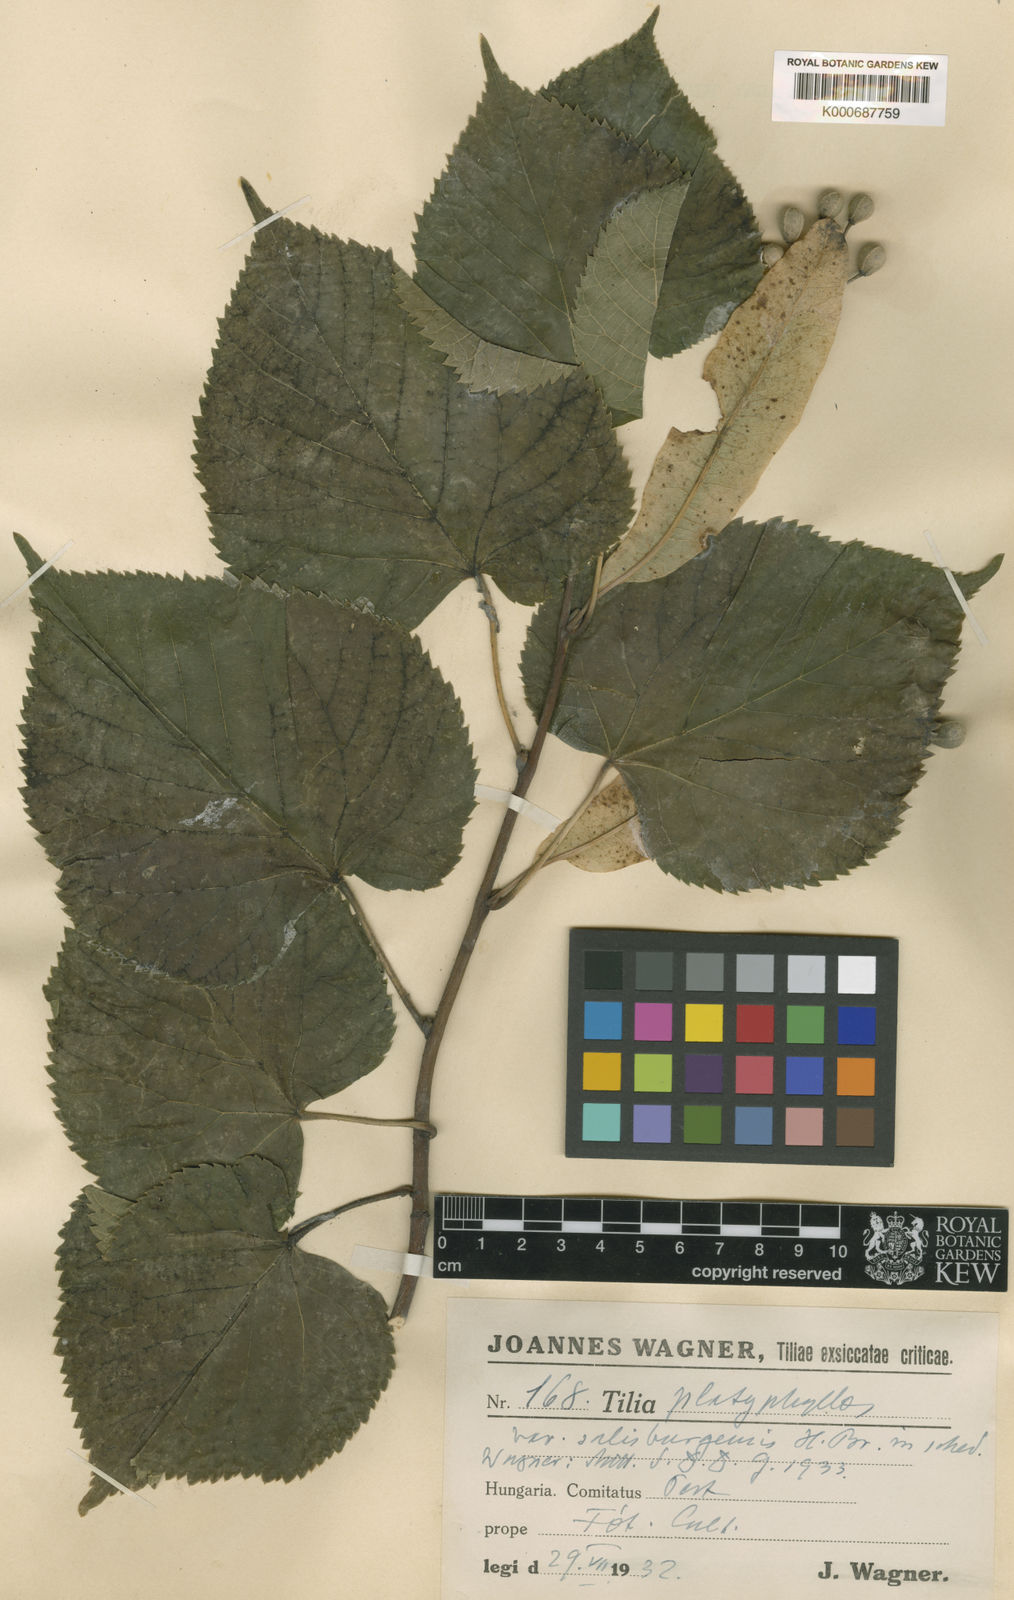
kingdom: Plantae
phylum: Tracheophyta
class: Magnoliopsida
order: Malvales
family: Malvaceae
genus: Tilia
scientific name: Tilia platyphyllos
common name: Large-leaved lime
